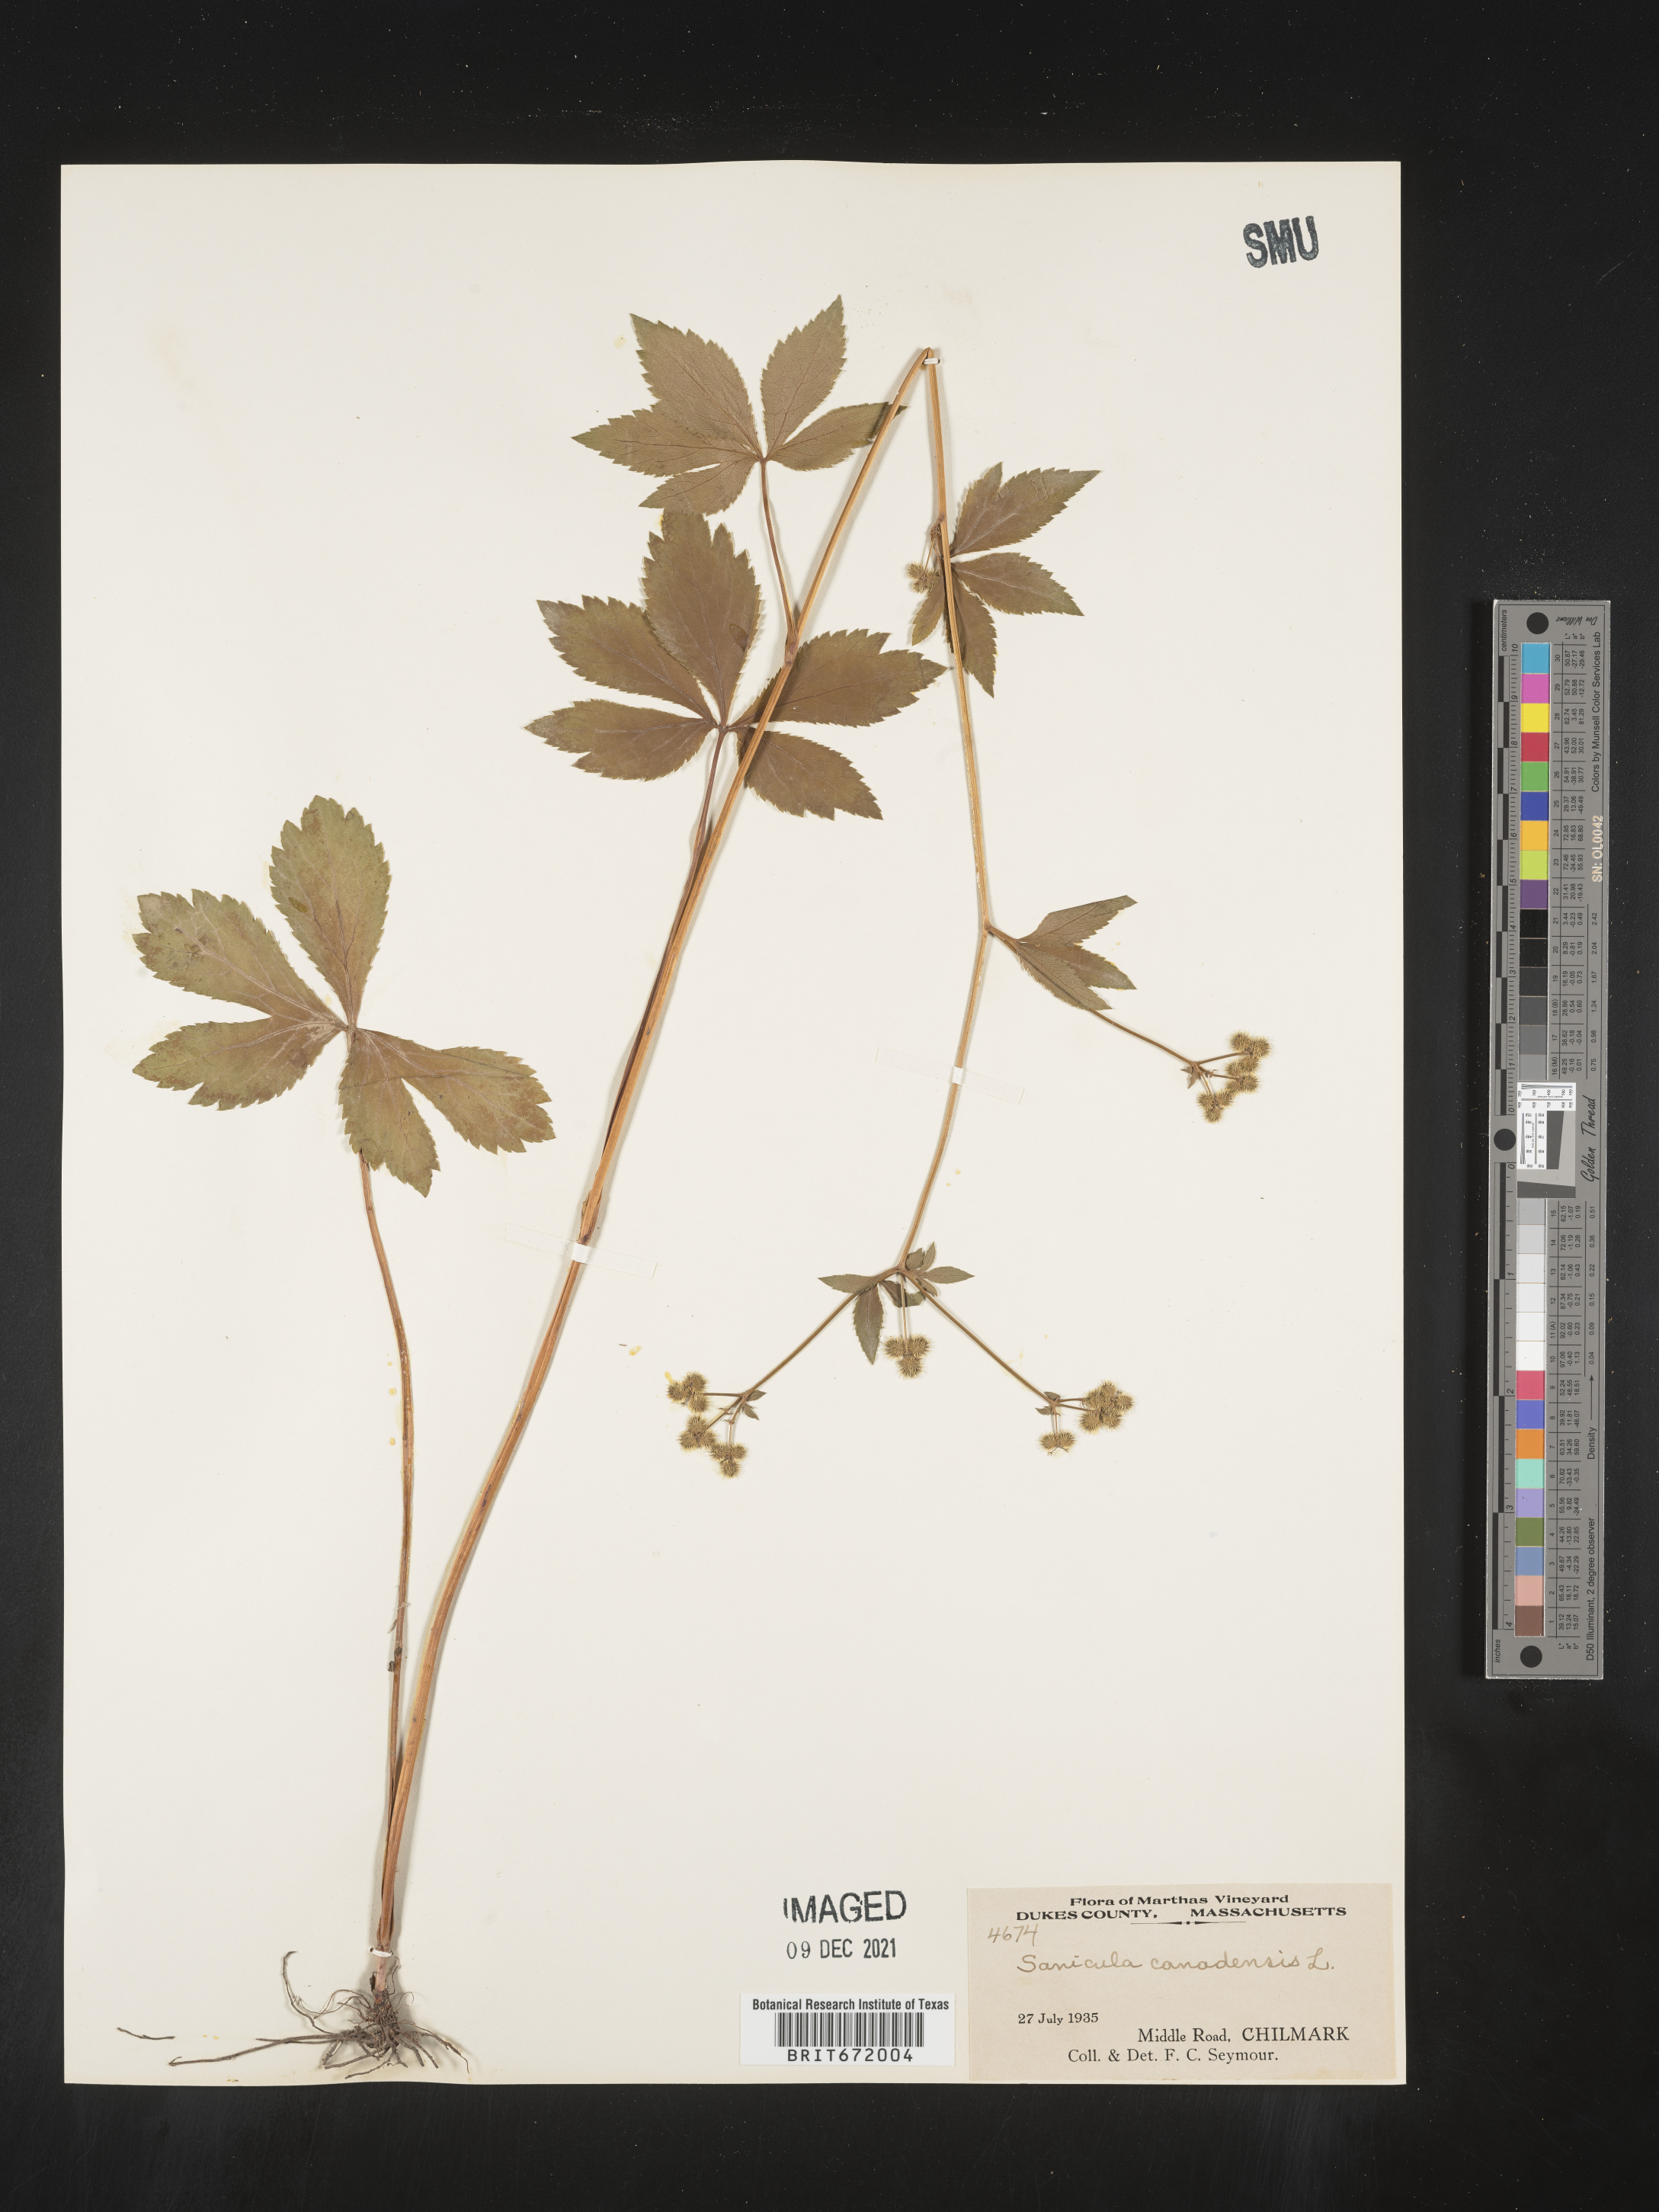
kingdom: Plantae
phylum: Tracheophyta
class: Magnoliopsida
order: Apiales
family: Apiaceae
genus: Sanicula
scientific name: Sanicula canadensis
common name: Canada sanicle
